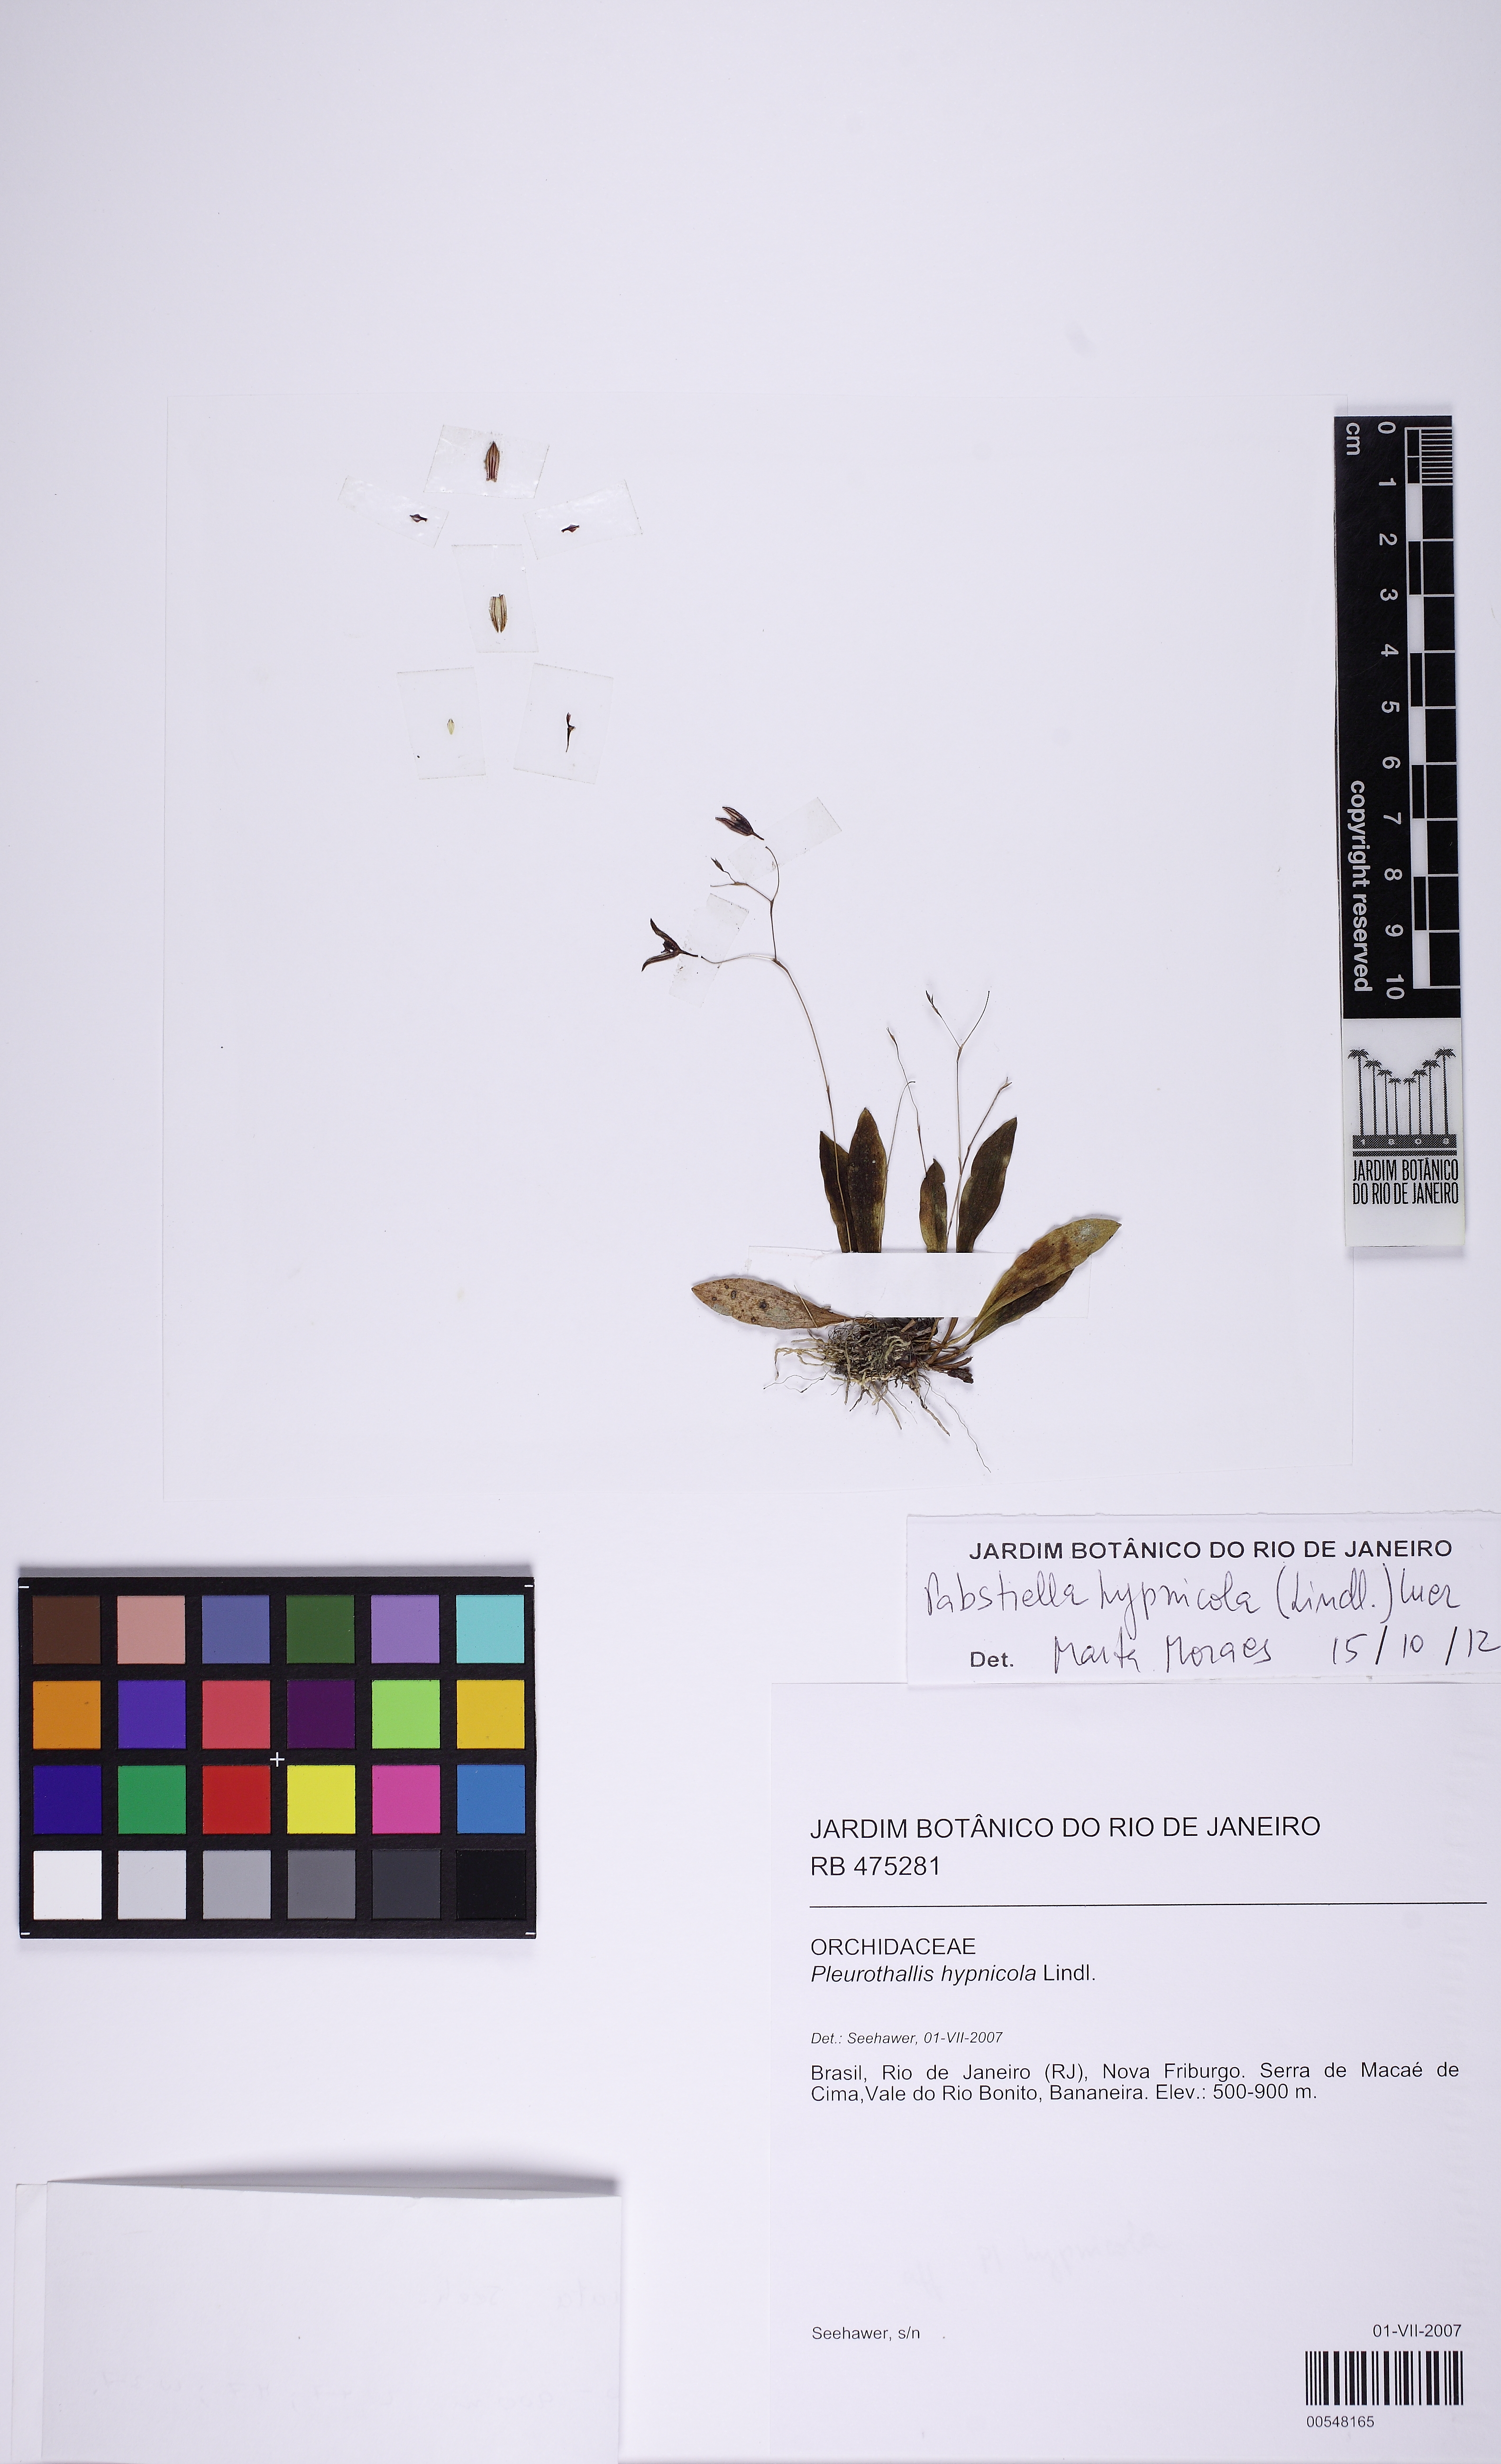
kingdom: Plantae
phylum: Tracheophyta
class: Liliopsida
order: Asparagales
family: Orchidaceae
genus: Pabstiella
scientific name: Pabstiella fasciata
